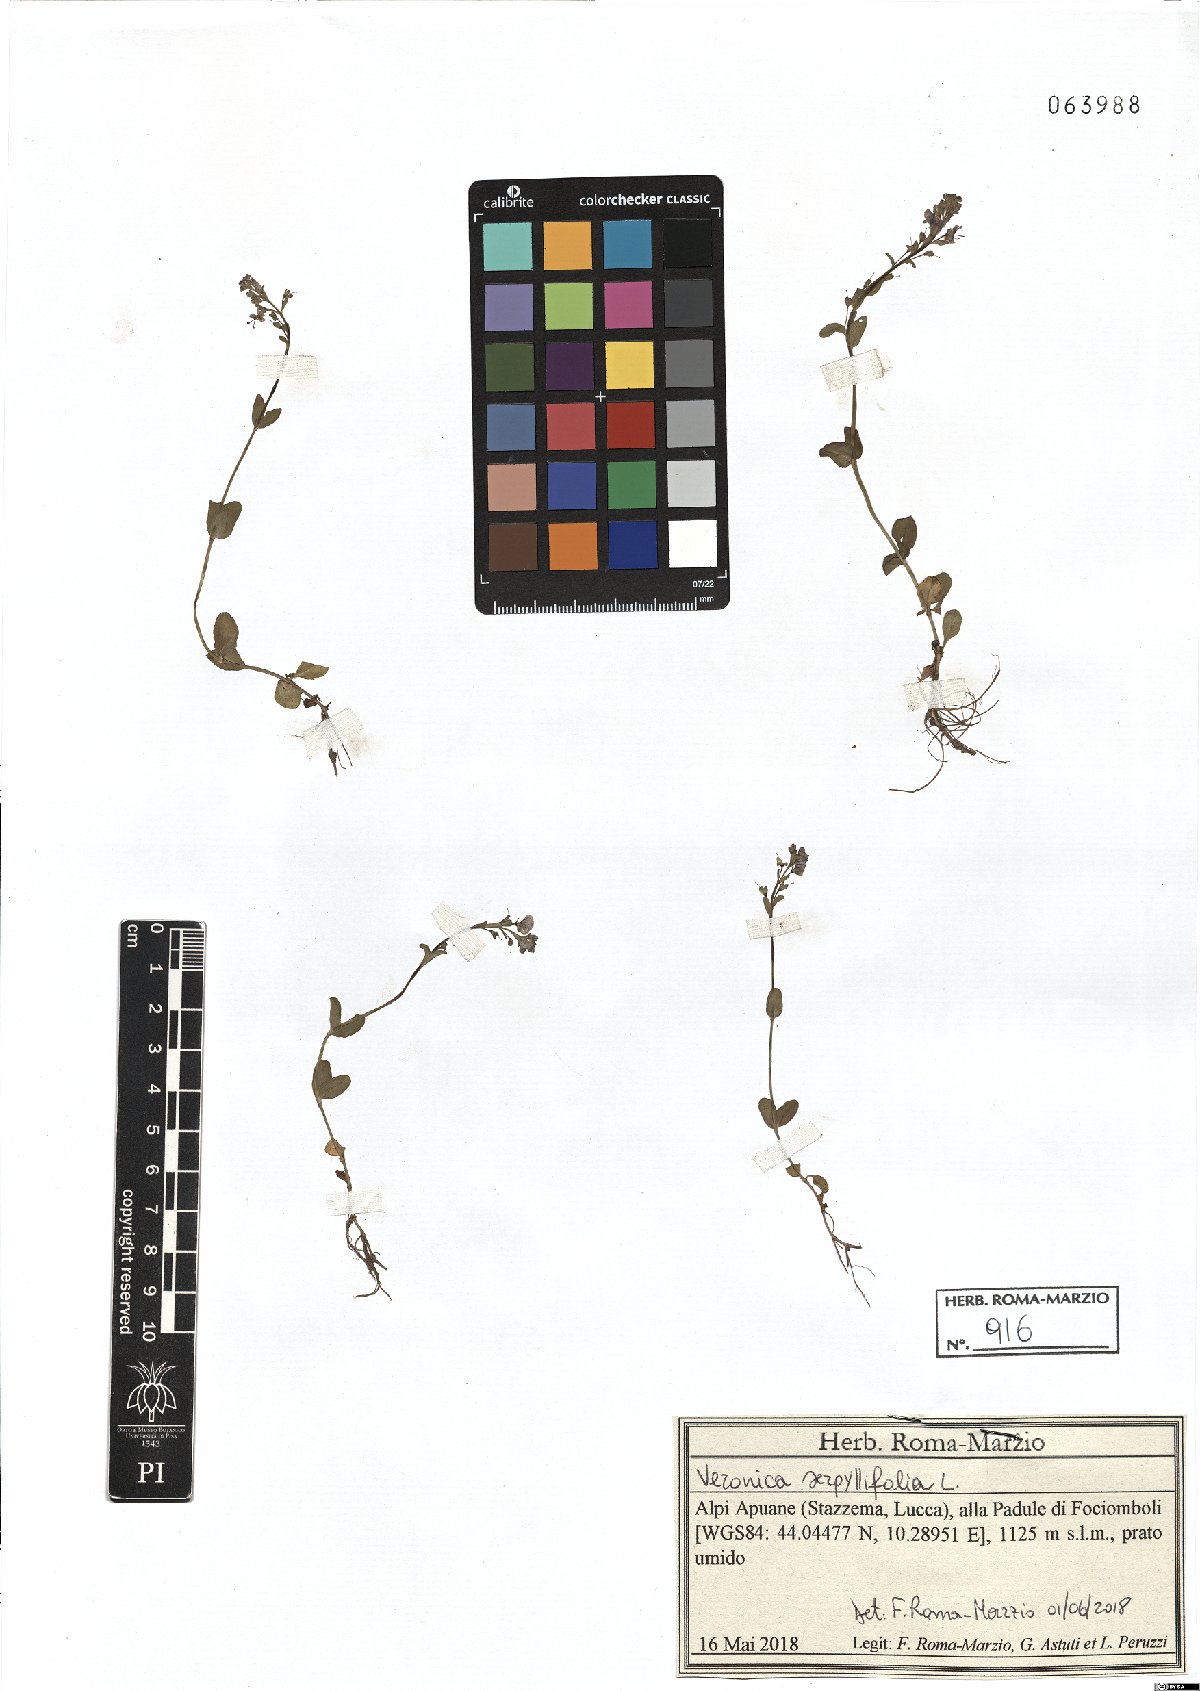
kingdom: Plantae
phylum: Tracheophyta
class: Magnoliopsida
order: Lamiales
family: Plantaginaceae
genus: Veronica
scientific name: Veronica serpyllifolia
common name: Thyme-leaved speedwell
